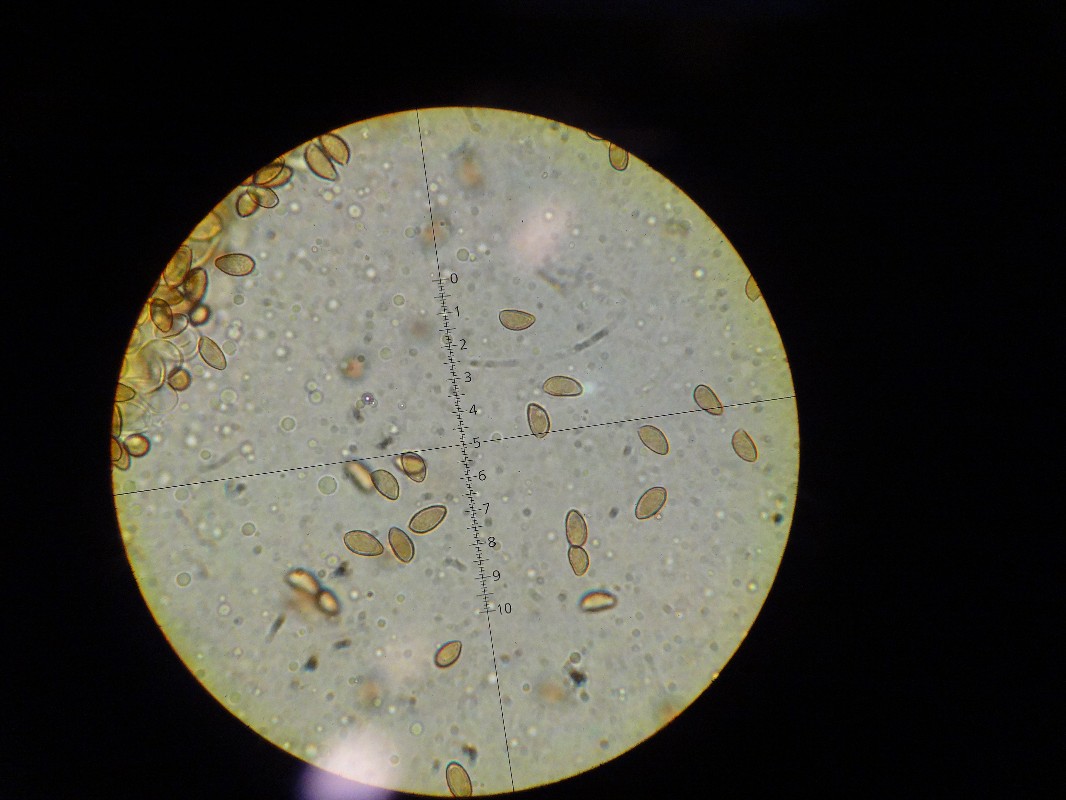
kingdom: Fungi
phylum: Basidiomycota
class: Agaricomycetes
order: Agaricales
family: Hymenogastraceae
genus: Hebeloma
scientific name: Hebeloma geminatum
